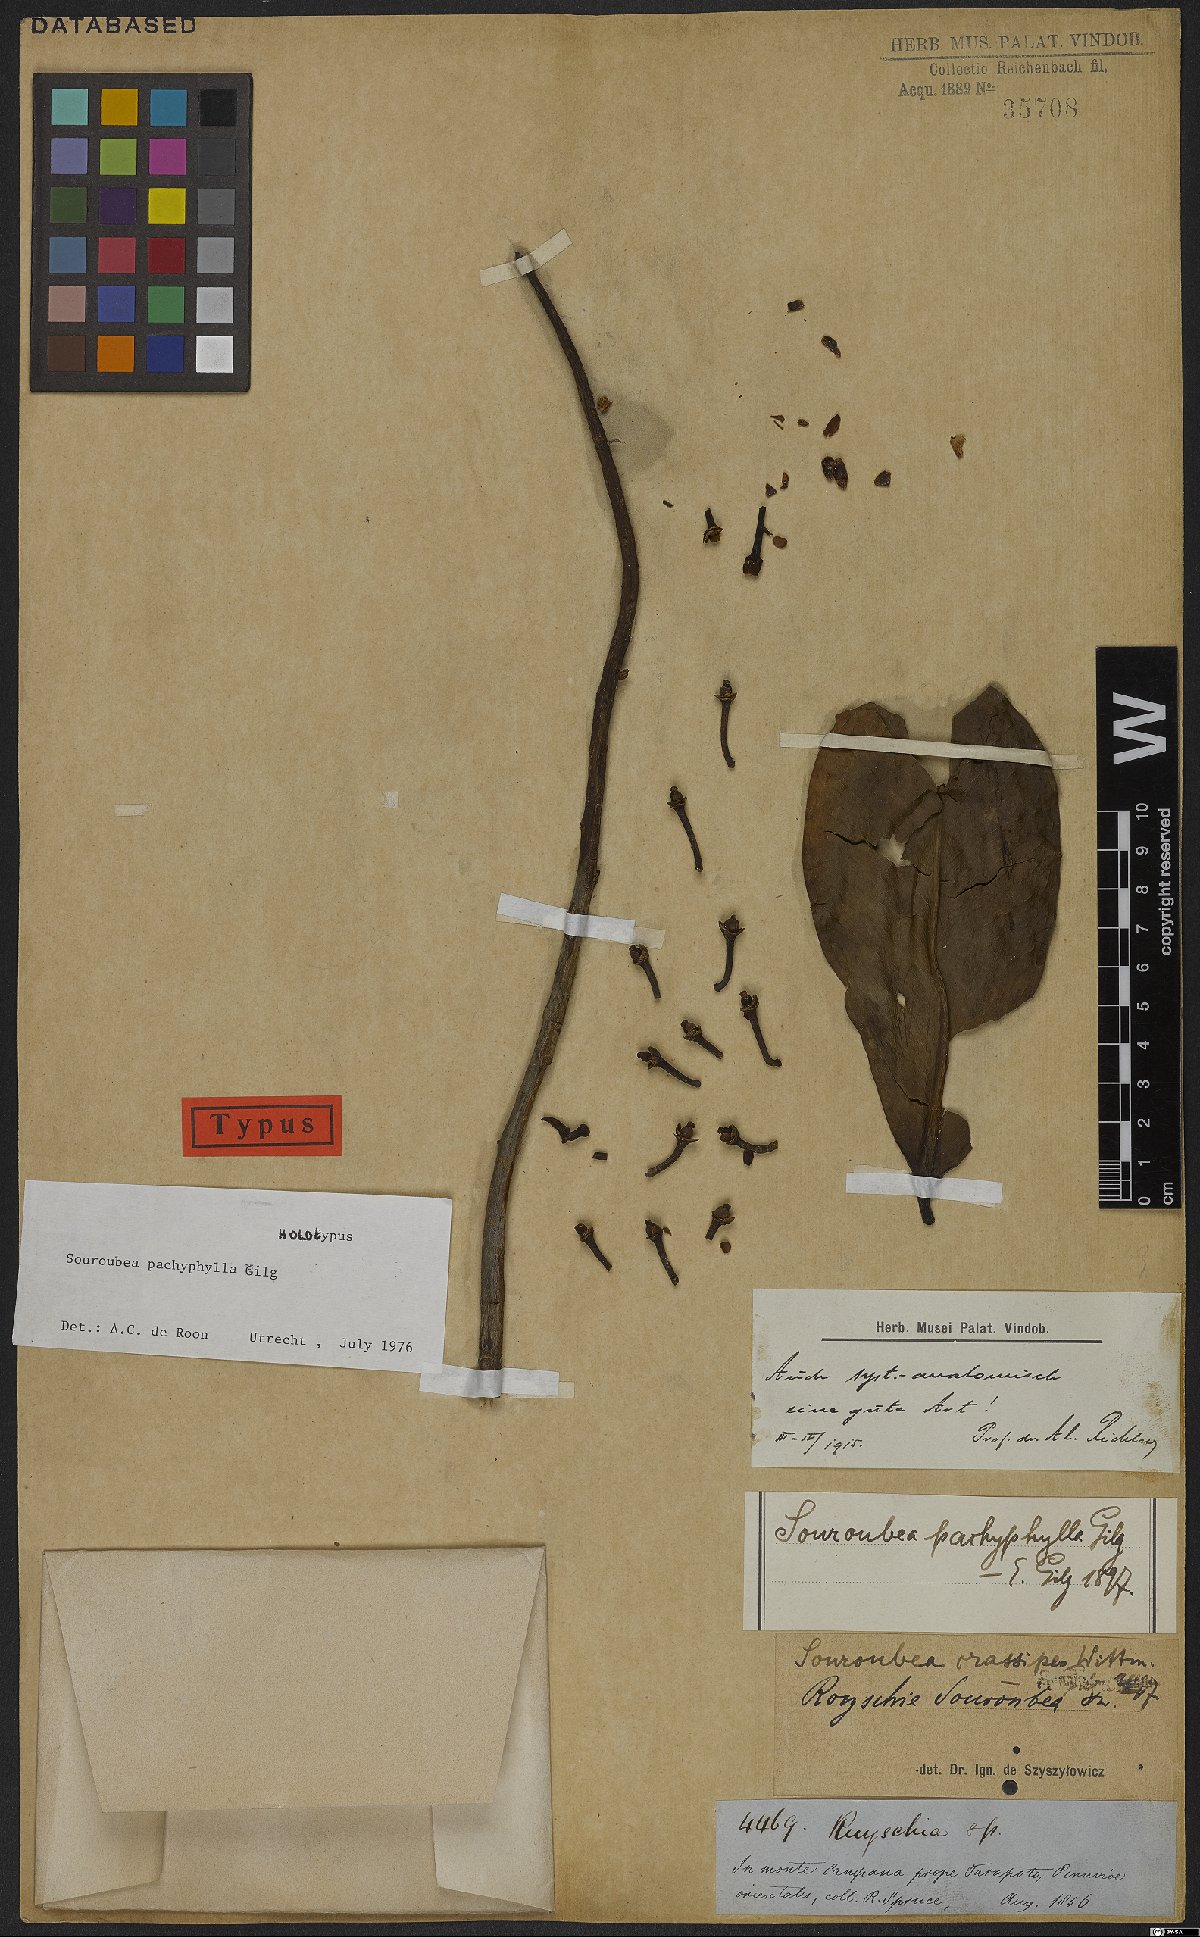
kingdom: Plantae
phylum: Tracheophyta
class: Magnoliopsida
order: Ericales
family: Marcgraviaceae
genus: Souroubea
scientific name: Souroubea pachyphylla
